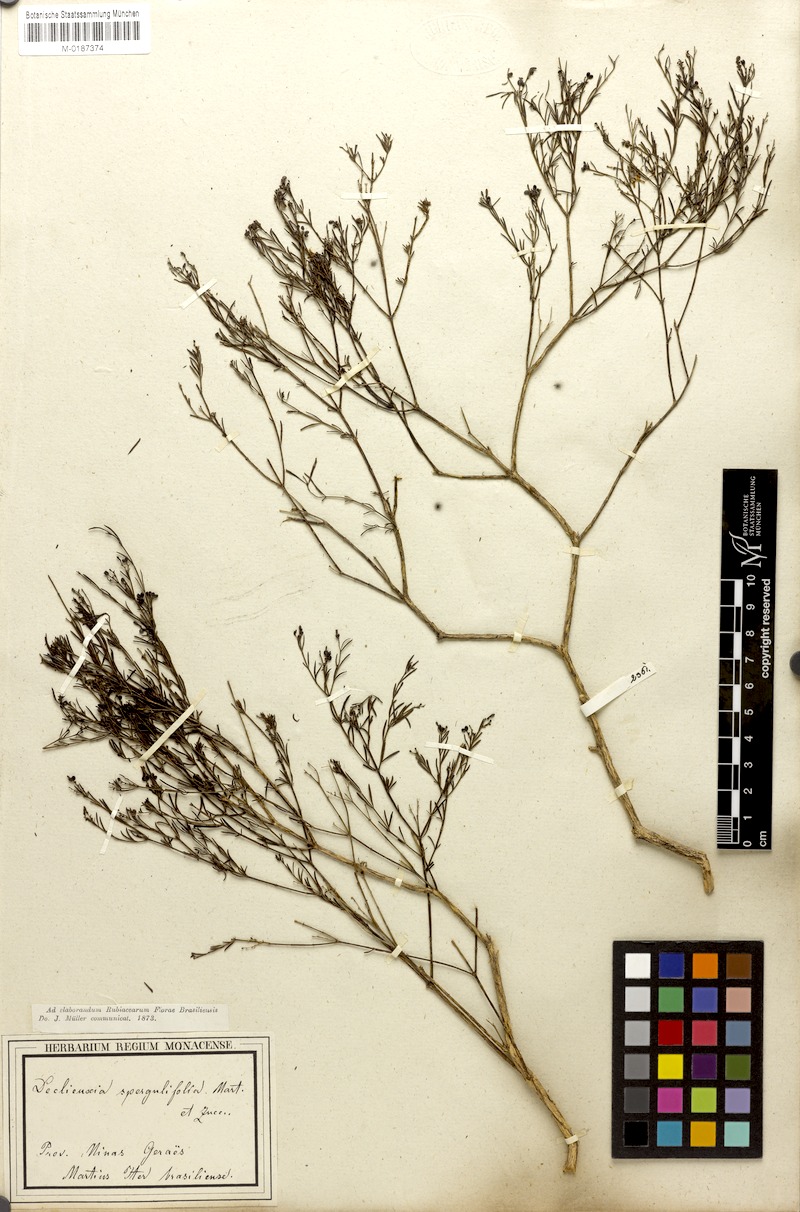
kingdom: Plantae
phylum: Tracheophyta
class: Magnoliopsida
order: Gentianales
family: Rubiaceae
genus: Declieuxia
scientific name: Declieuxia spergulifolia
